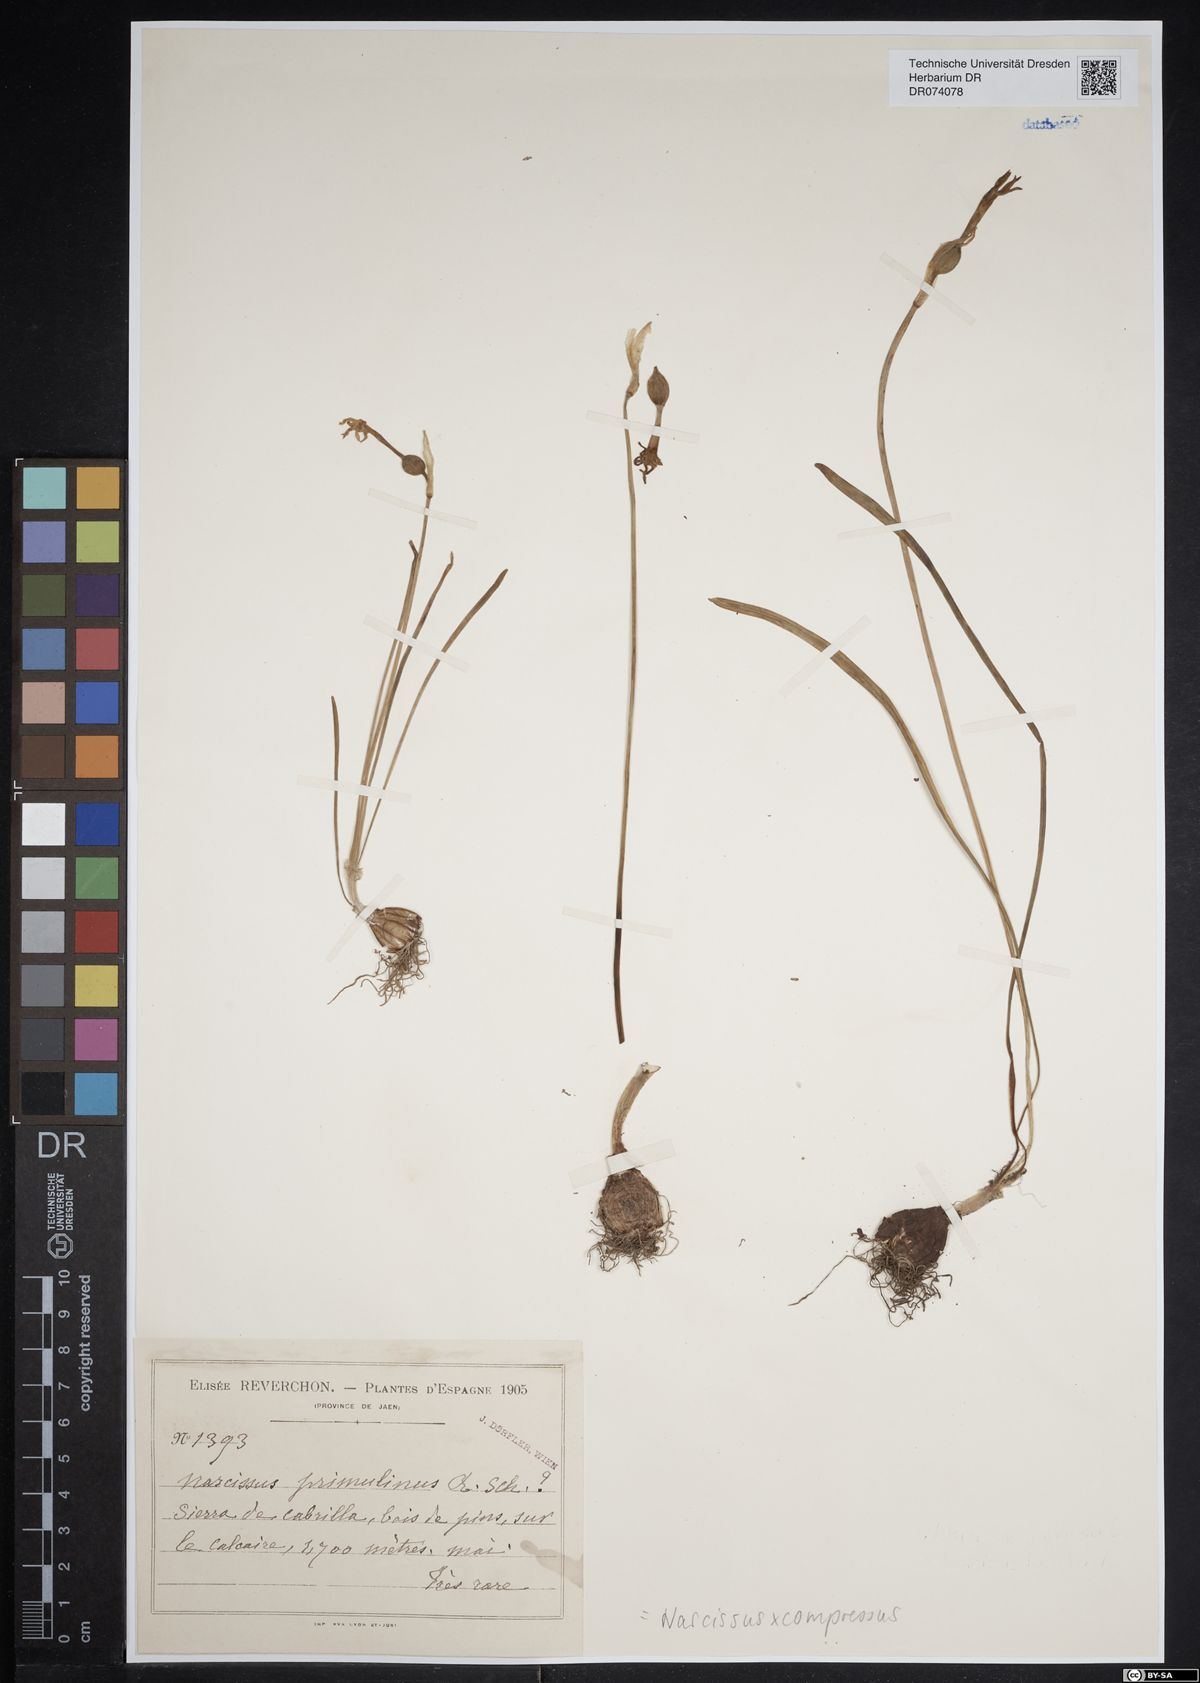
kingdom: Plantae
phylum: Tracheophyta
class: Liliopsida
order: Asparagales
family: Amaryllidaceae
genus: Narcissus
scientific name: Narcissus compressus
